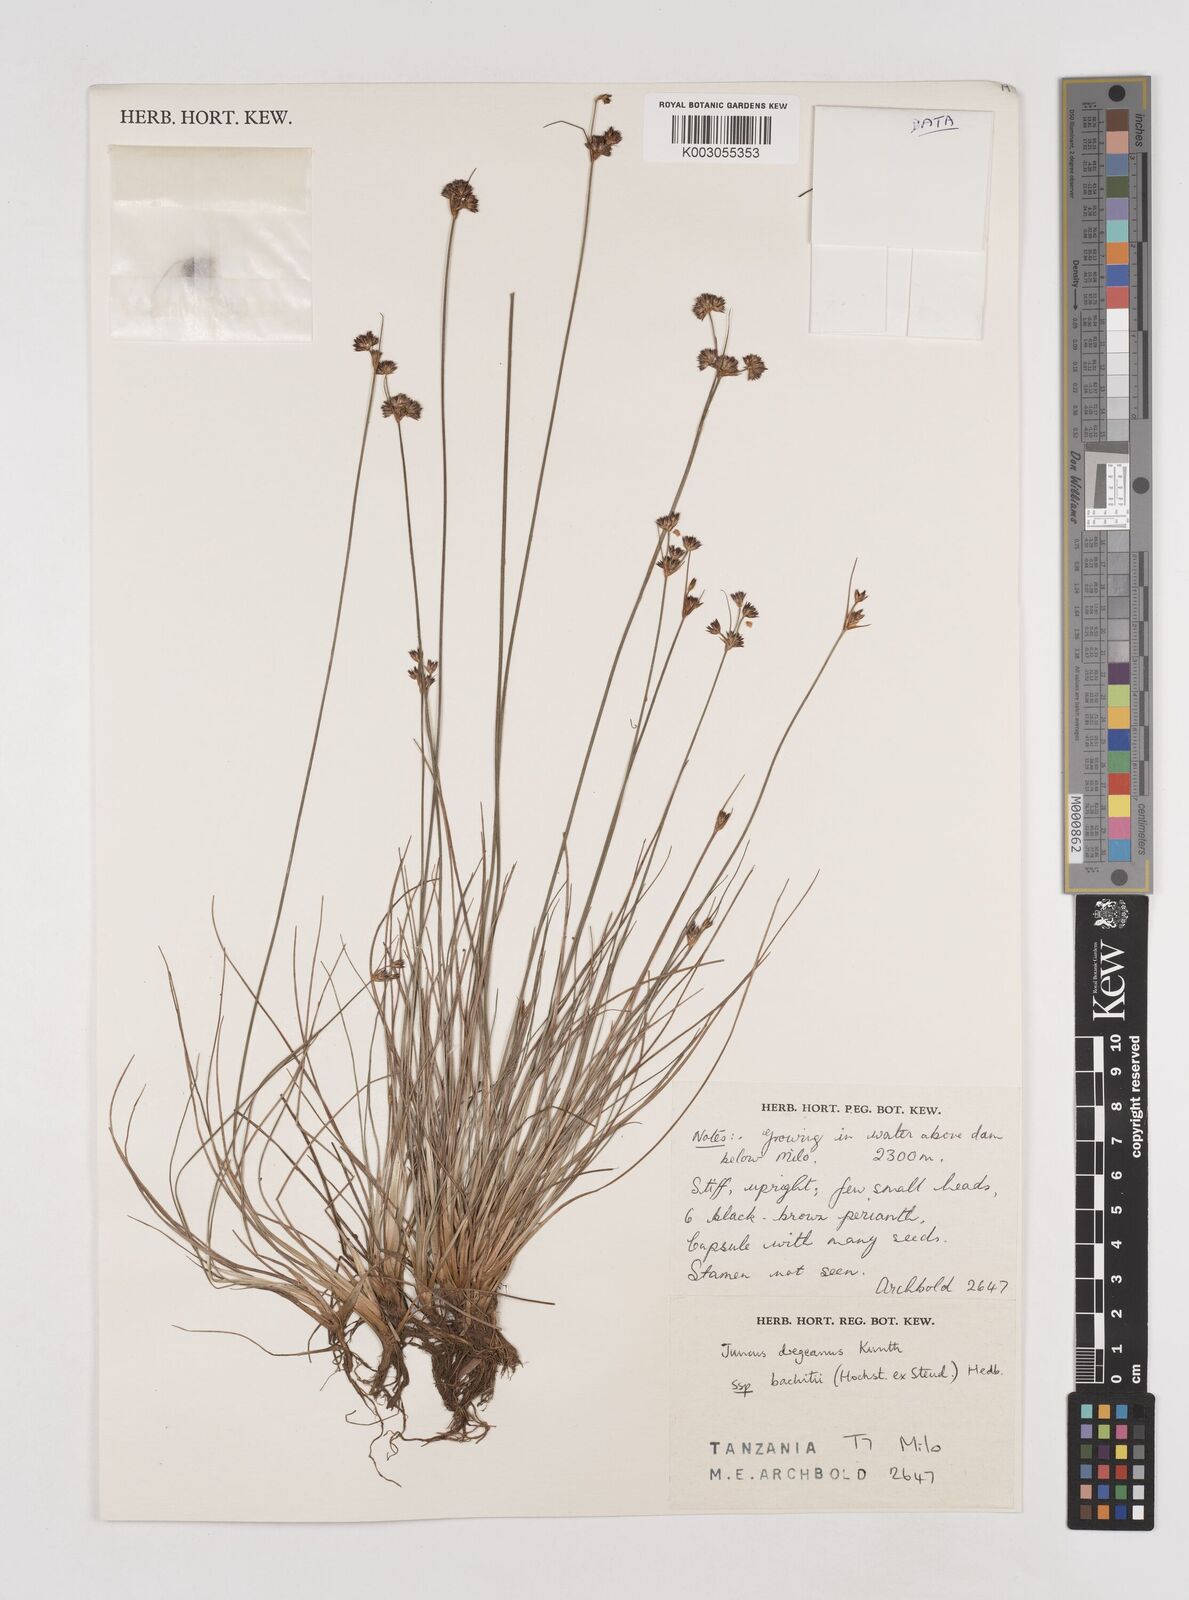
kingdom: Plantae
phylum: Tracheophyta
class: Liliopsida
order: Poales
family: Juncaceae
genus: Juncus
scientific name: Juncus dregeanus
